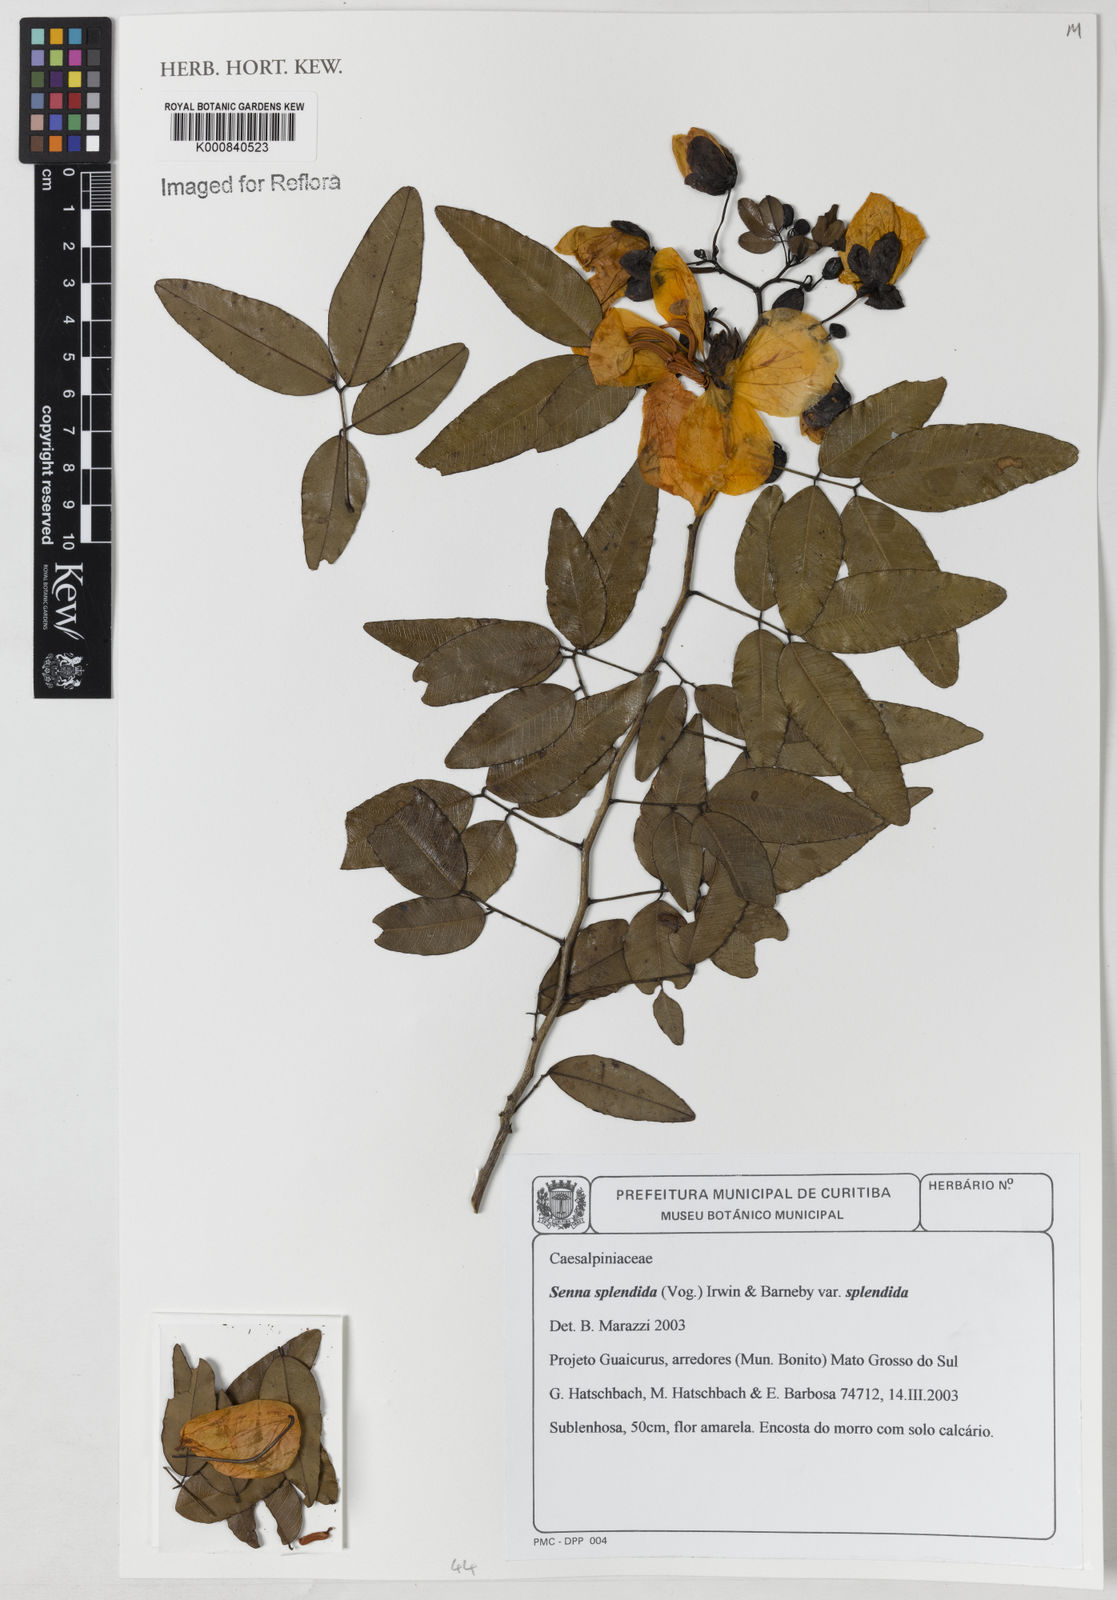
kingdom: Plantae
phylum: Tracheophyta
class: Magnoliopsida
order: Fabales
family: Fabaceae
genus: Senna
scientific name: Senna splendida
